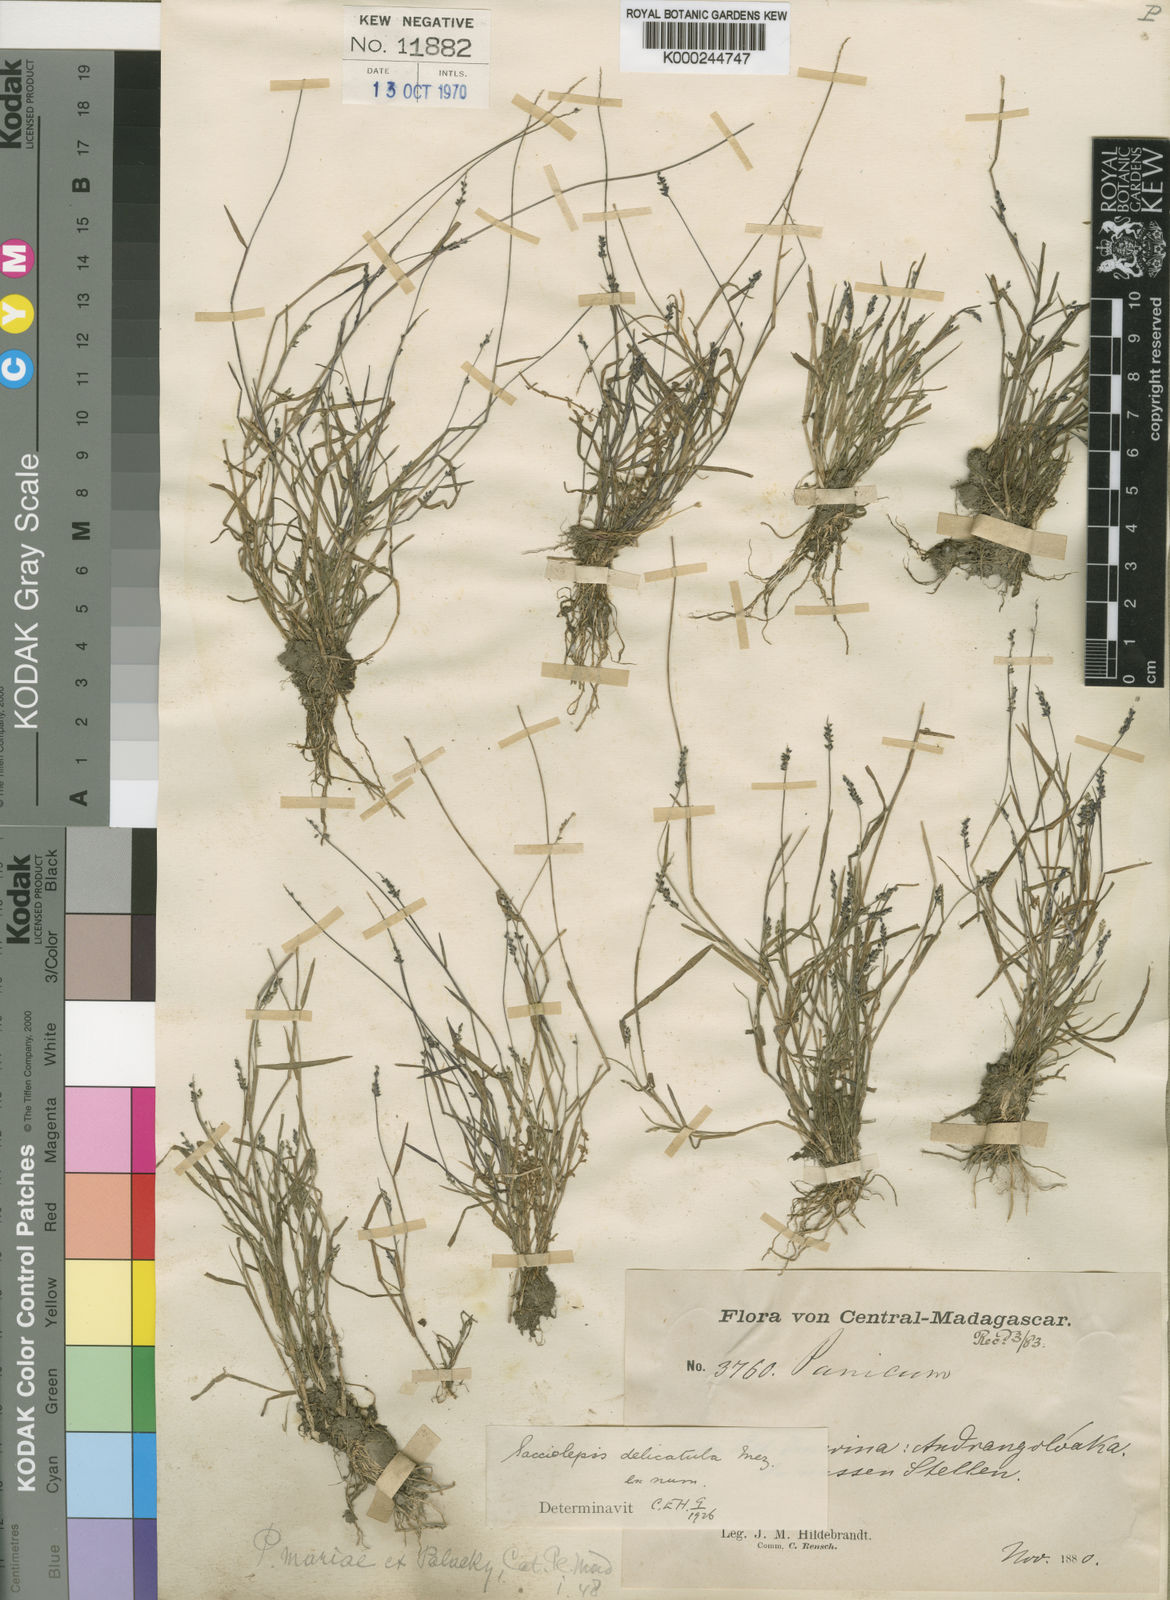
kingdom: Plantae
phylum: Tracheophyta
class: Liliopsida
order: Poales
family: Poaceae
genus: Sacciolepis
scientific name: Sacciolepis myosuroides
